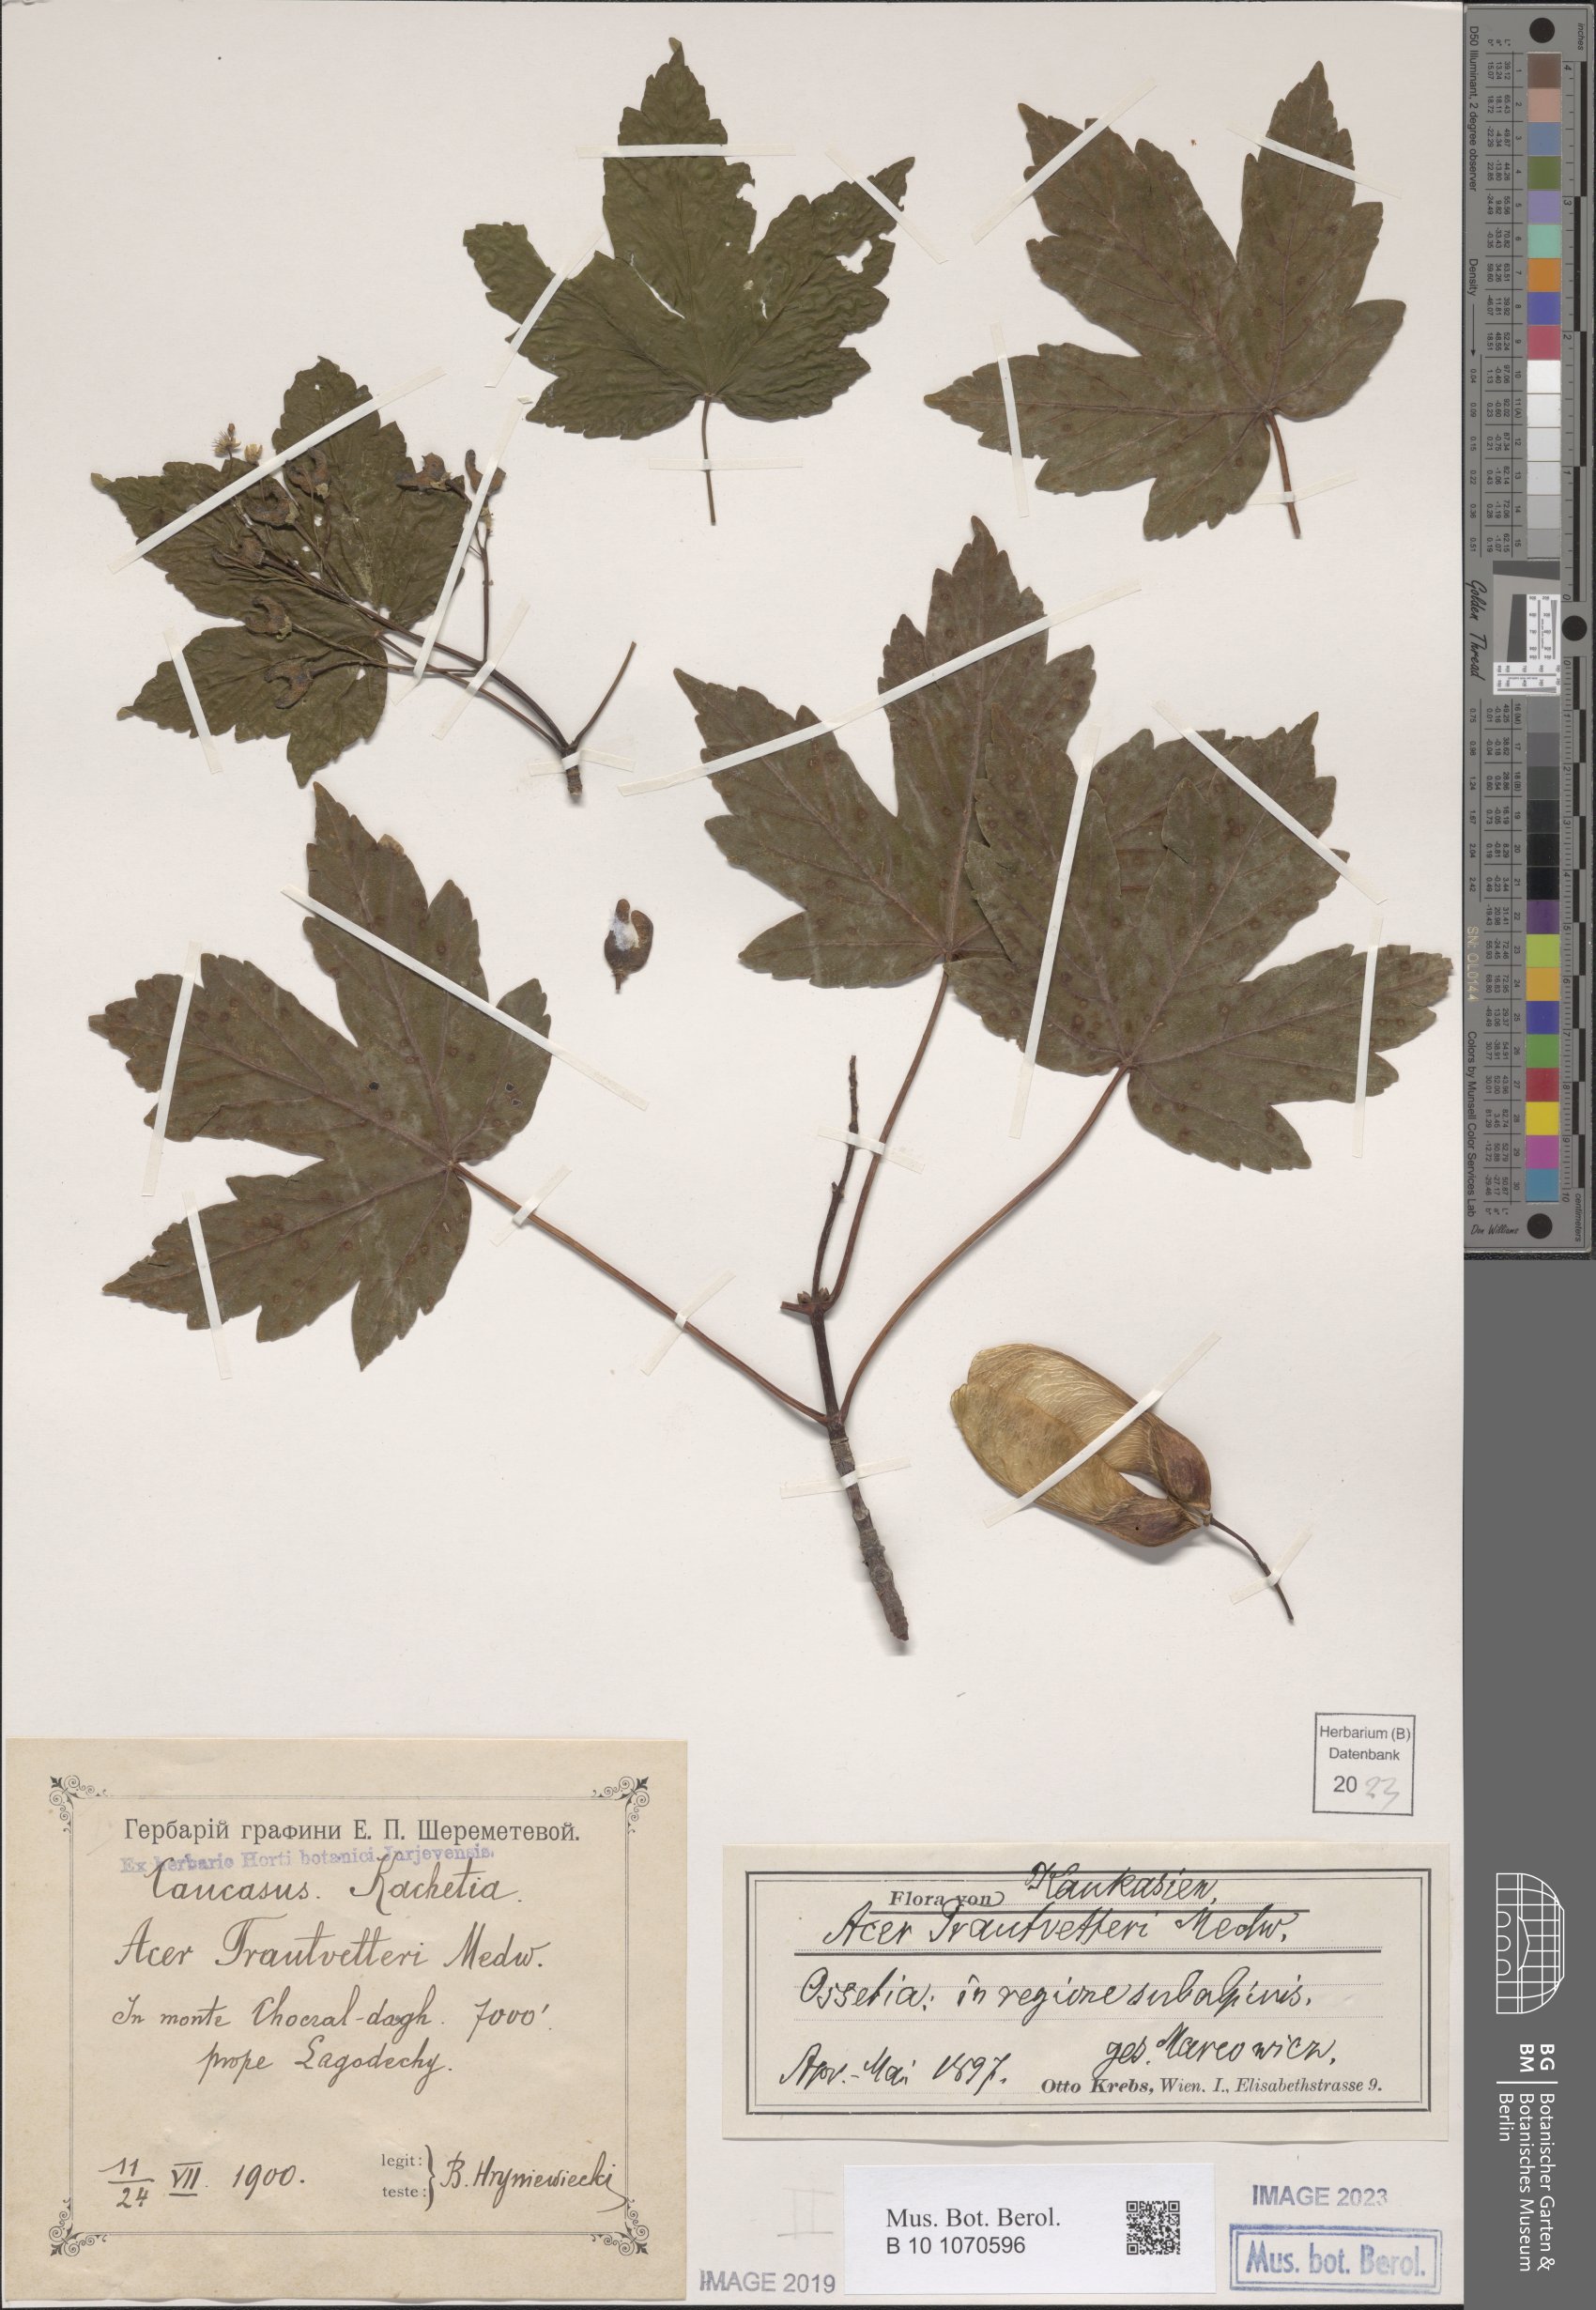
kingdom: Plantae
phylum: Tracheophyta
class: Magnoliopsida
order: Sapindales
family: Sapindaceae
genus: Acer
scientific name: Acer heldreichii
